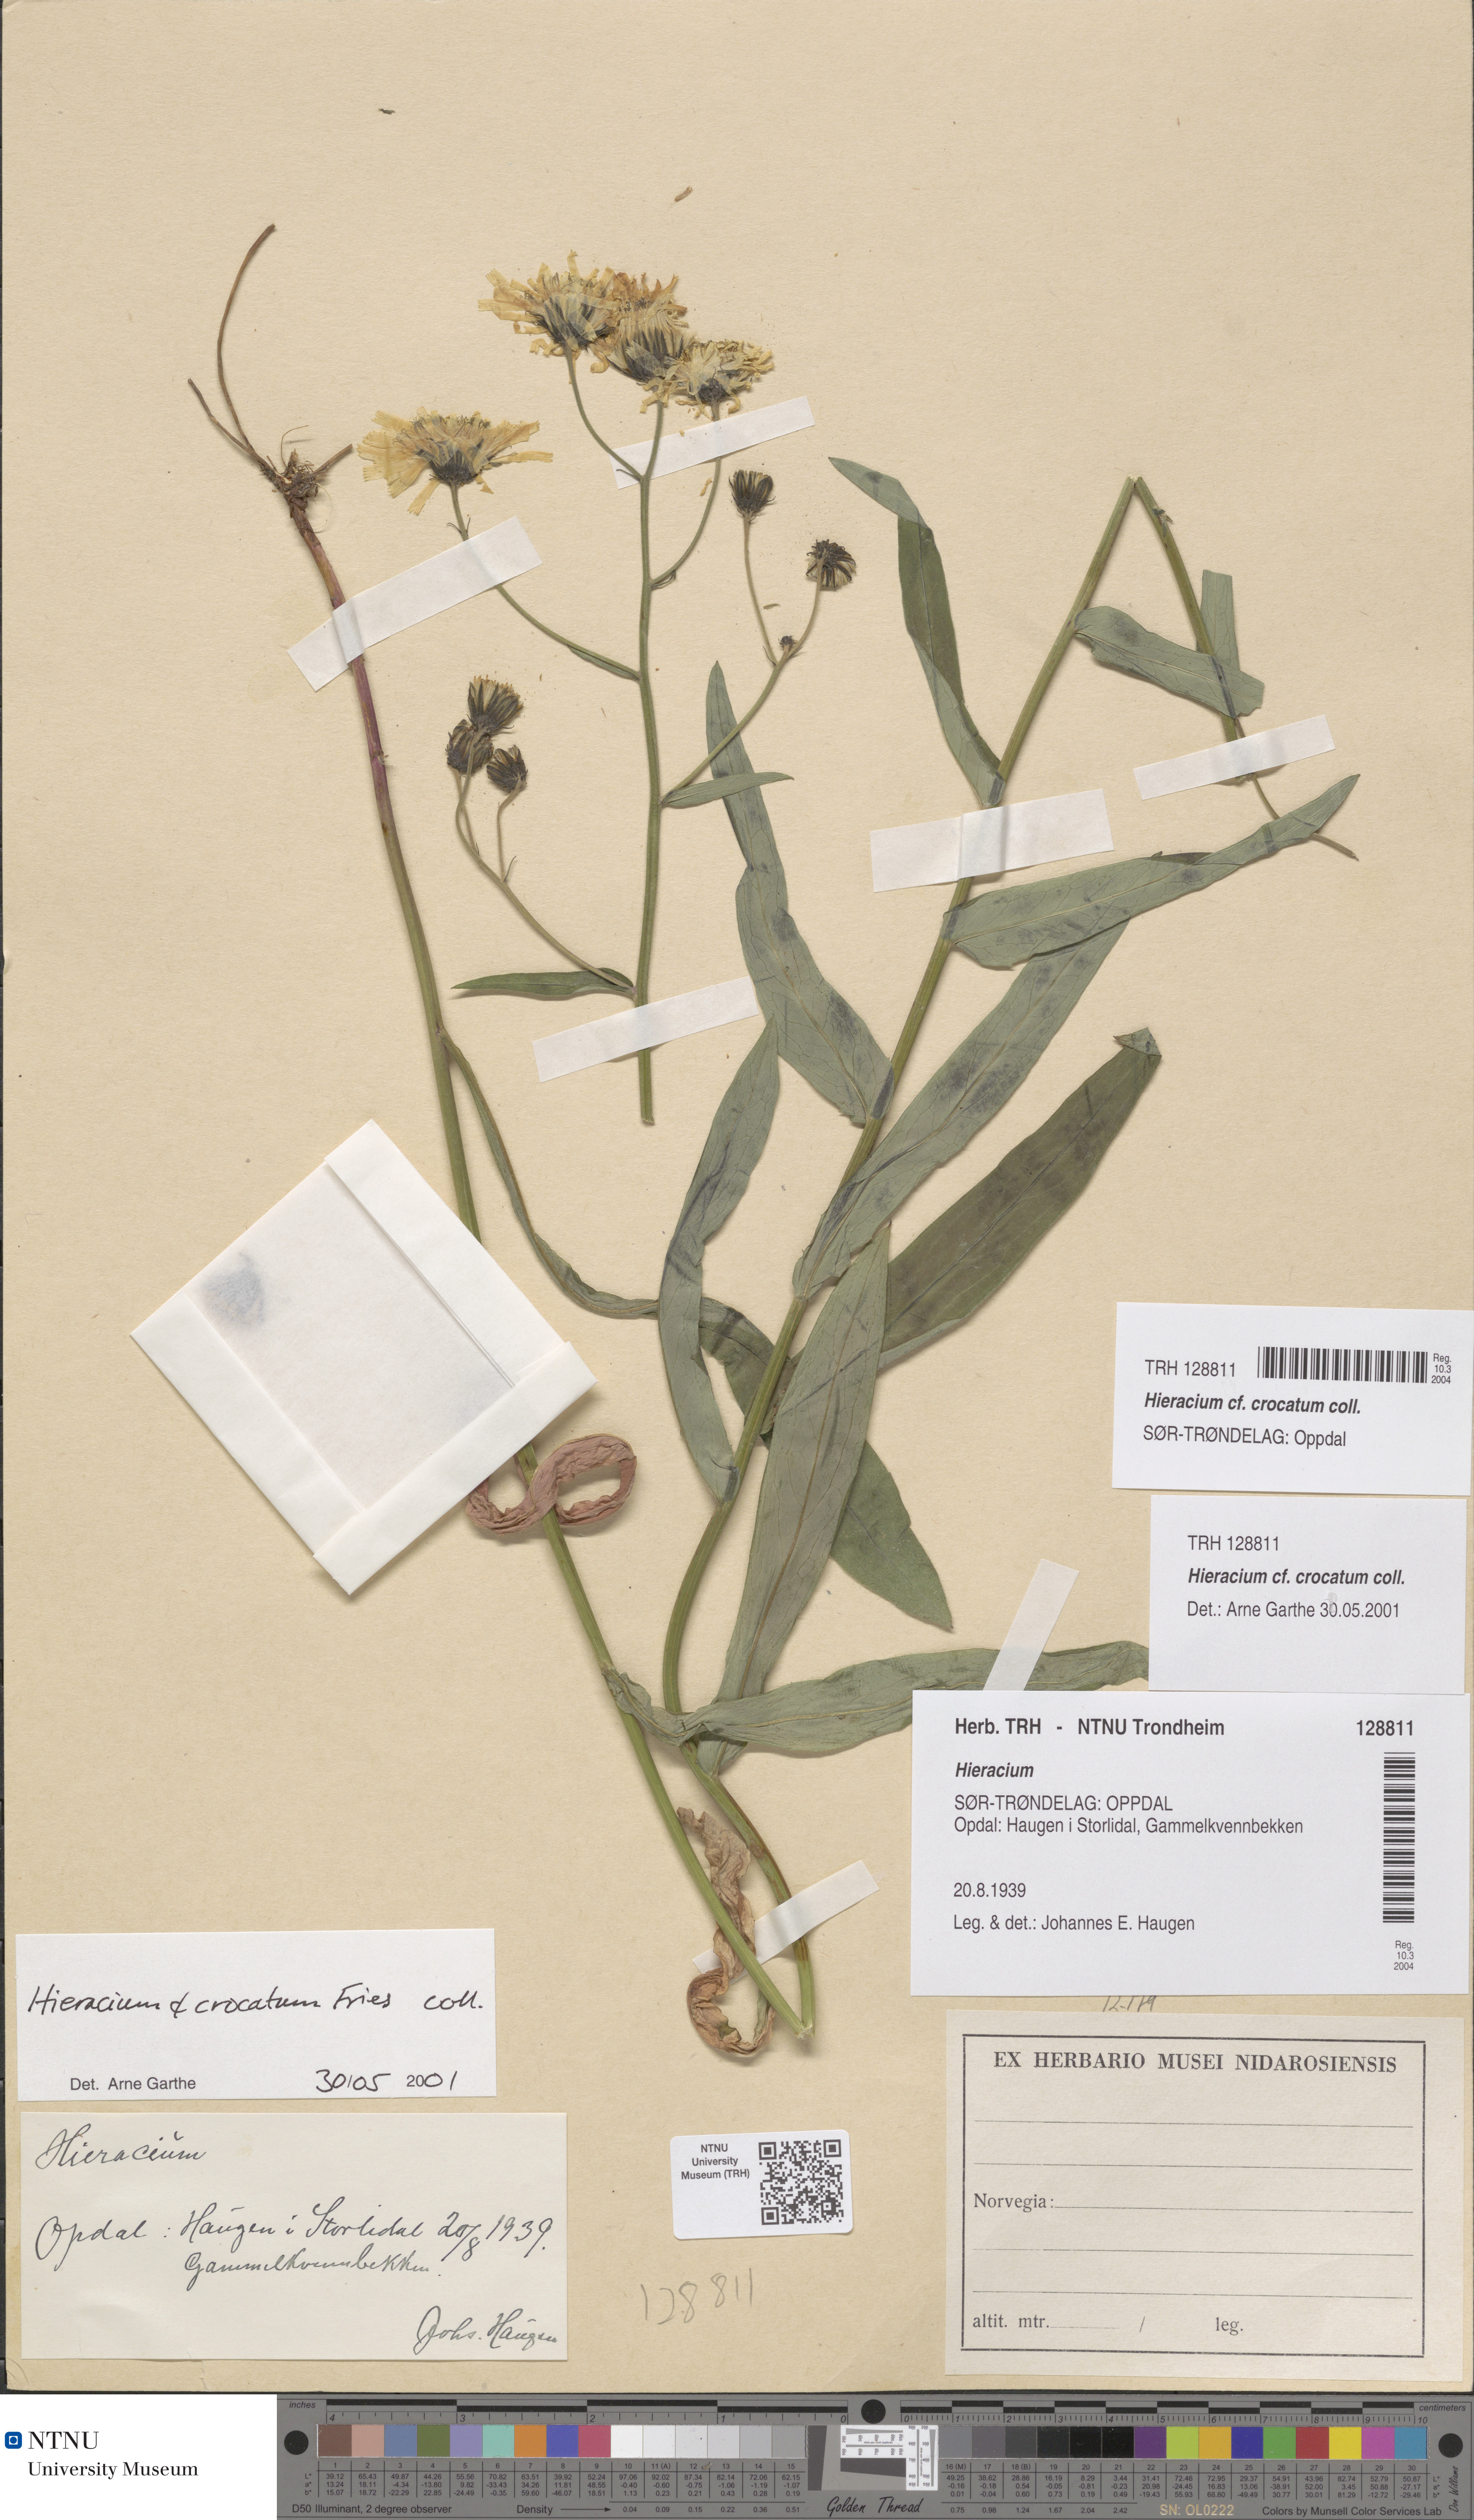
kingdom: Plantae
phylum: Tracheophyta
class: Magnoliopsida
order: Asterales
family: Asteraceae
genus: Hieracium
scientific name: Hieracium crocatum
